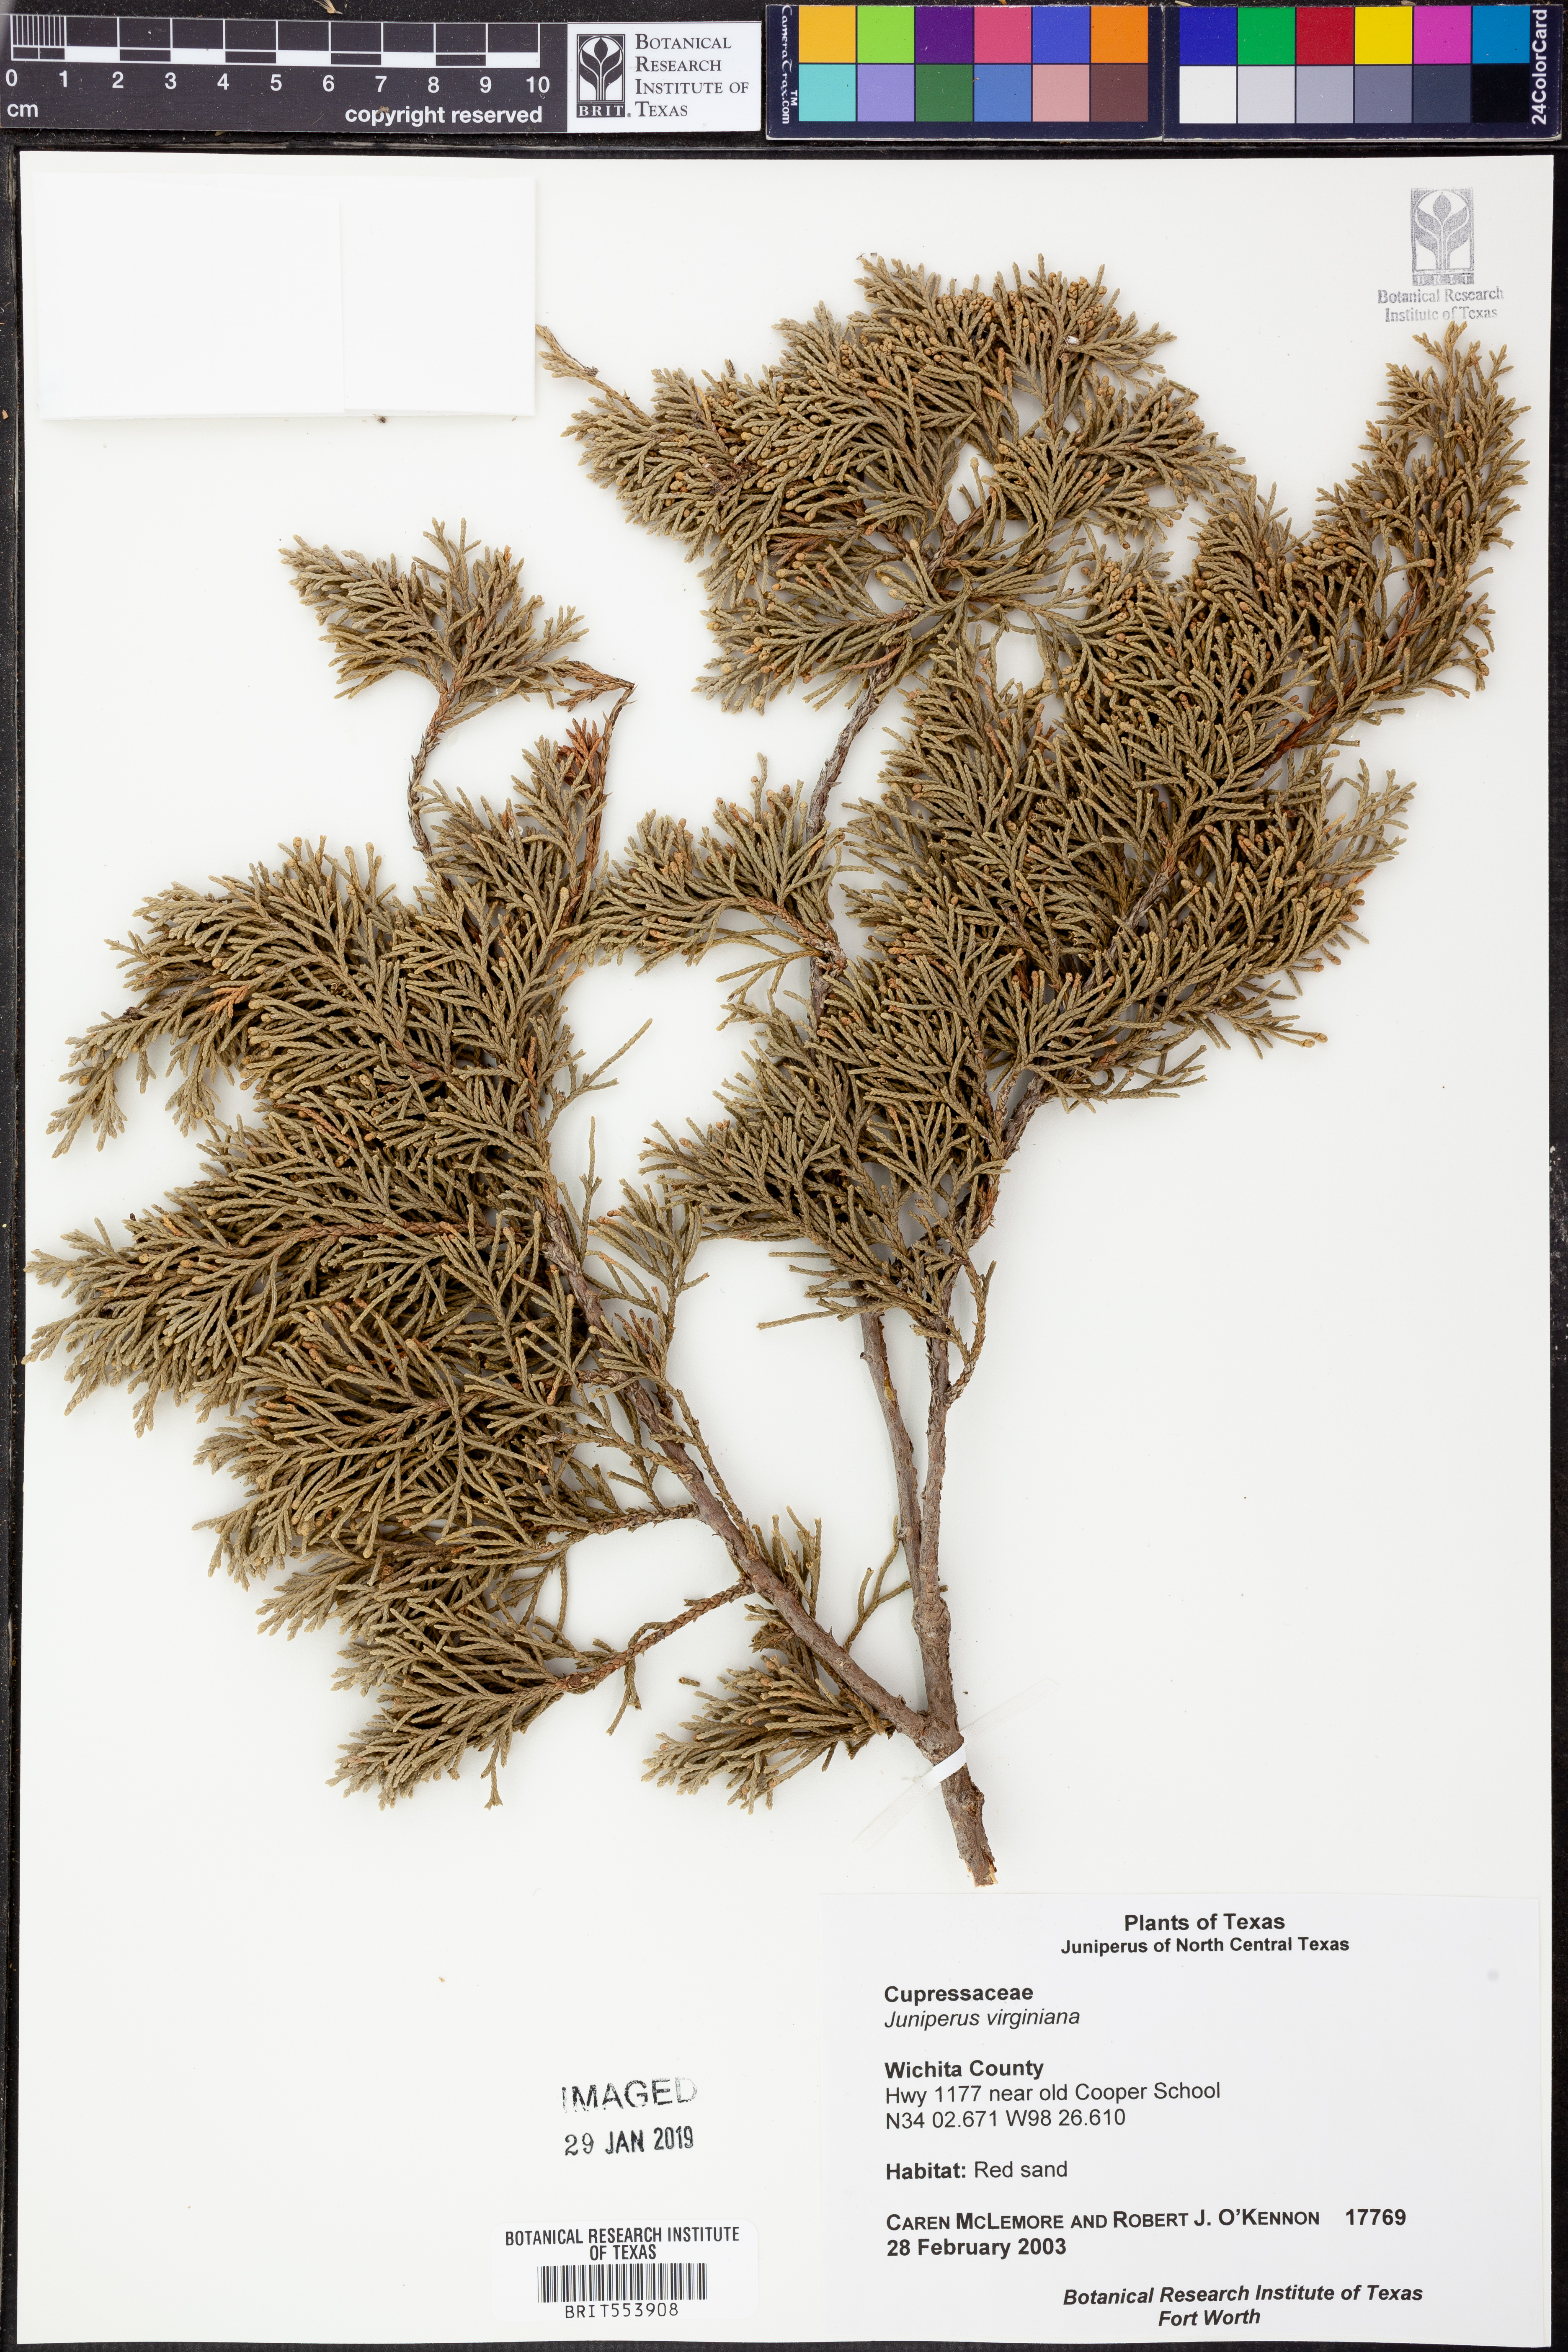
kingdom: Plantae
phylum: Tracheophyta
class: Pinopsida
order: Pinales
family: Cupressaceae
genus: Juniperus
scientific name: Juniperus virginiana
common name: Red juniper
